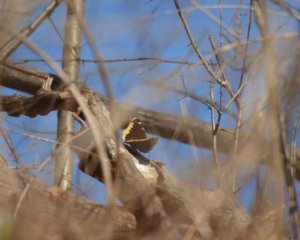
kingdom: Animalia
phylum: Arthropoda
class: Insecta
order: Lepidoptera
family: Nymphalidae
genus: Nymphalis
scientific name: Nymphalis antiopa
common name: Mourning Cloak
